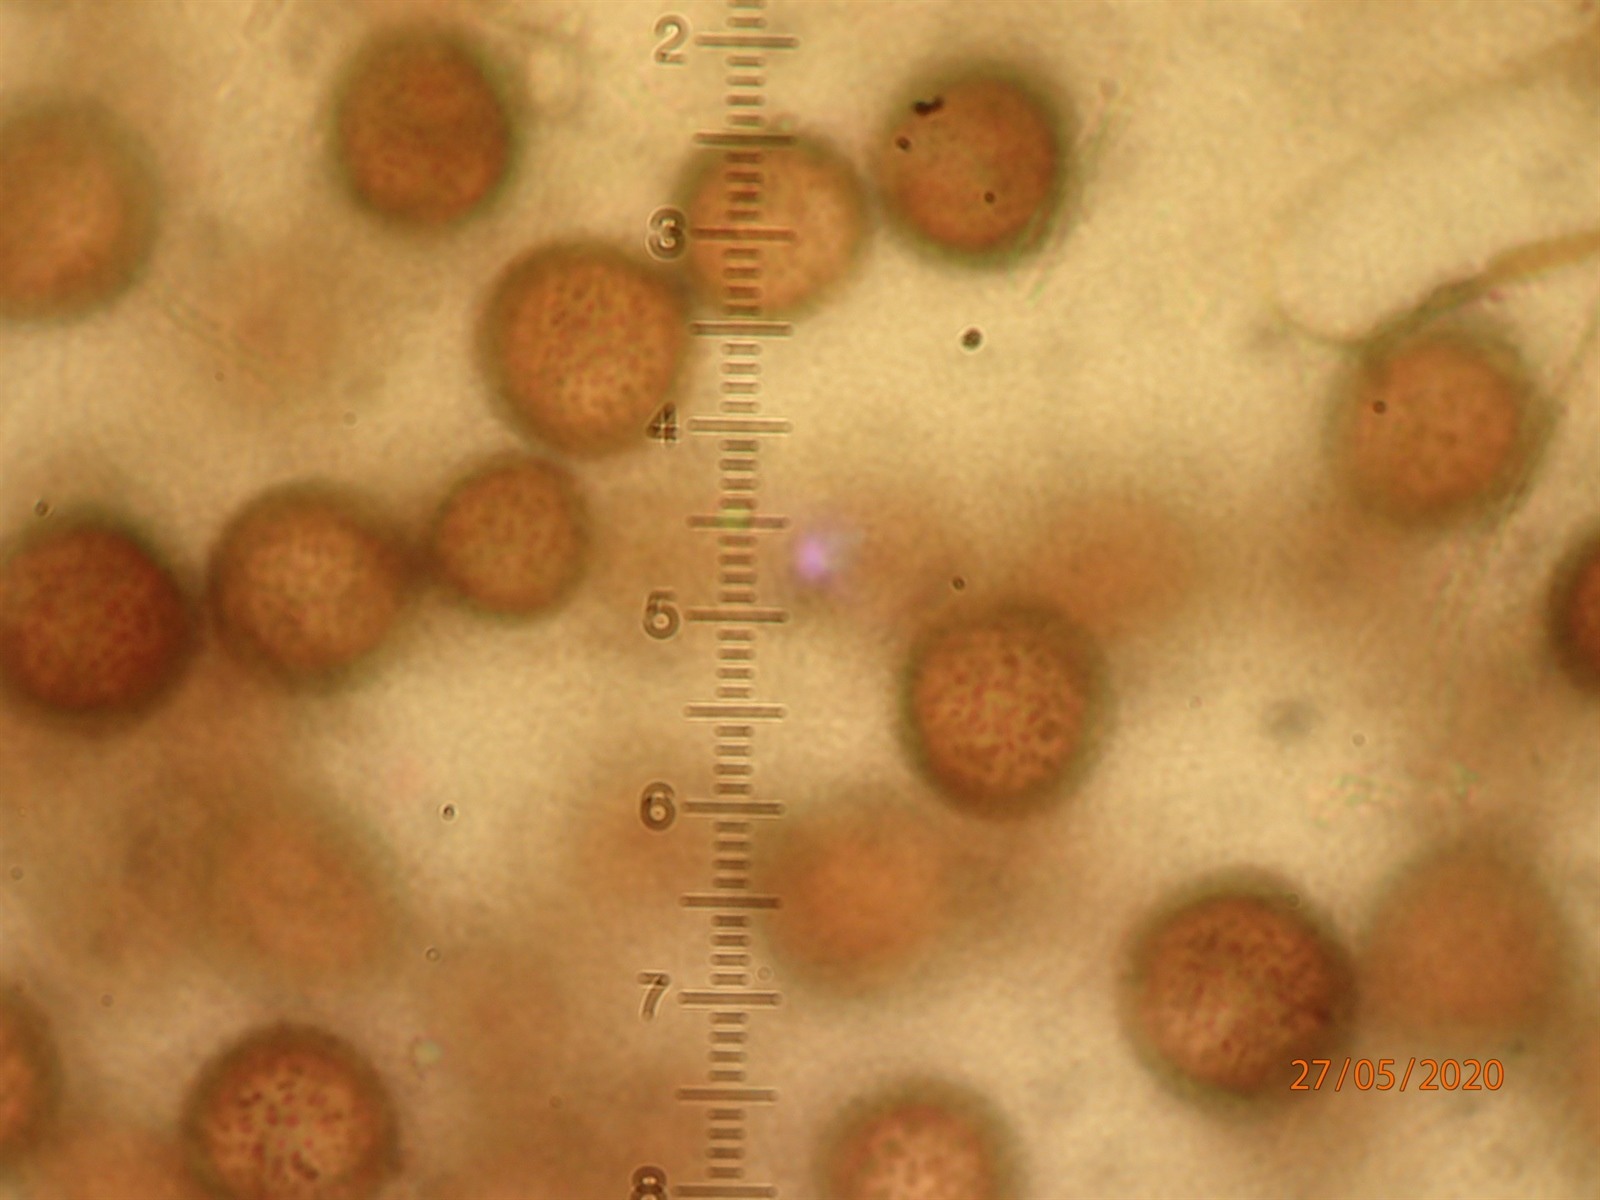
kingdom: Protozoa
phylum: Mycetozoa
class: Myxomycetes
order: Stemonitidales
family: Stemonitidaceae
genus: Lamproderma
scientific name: Lamproderma splendidissimum
